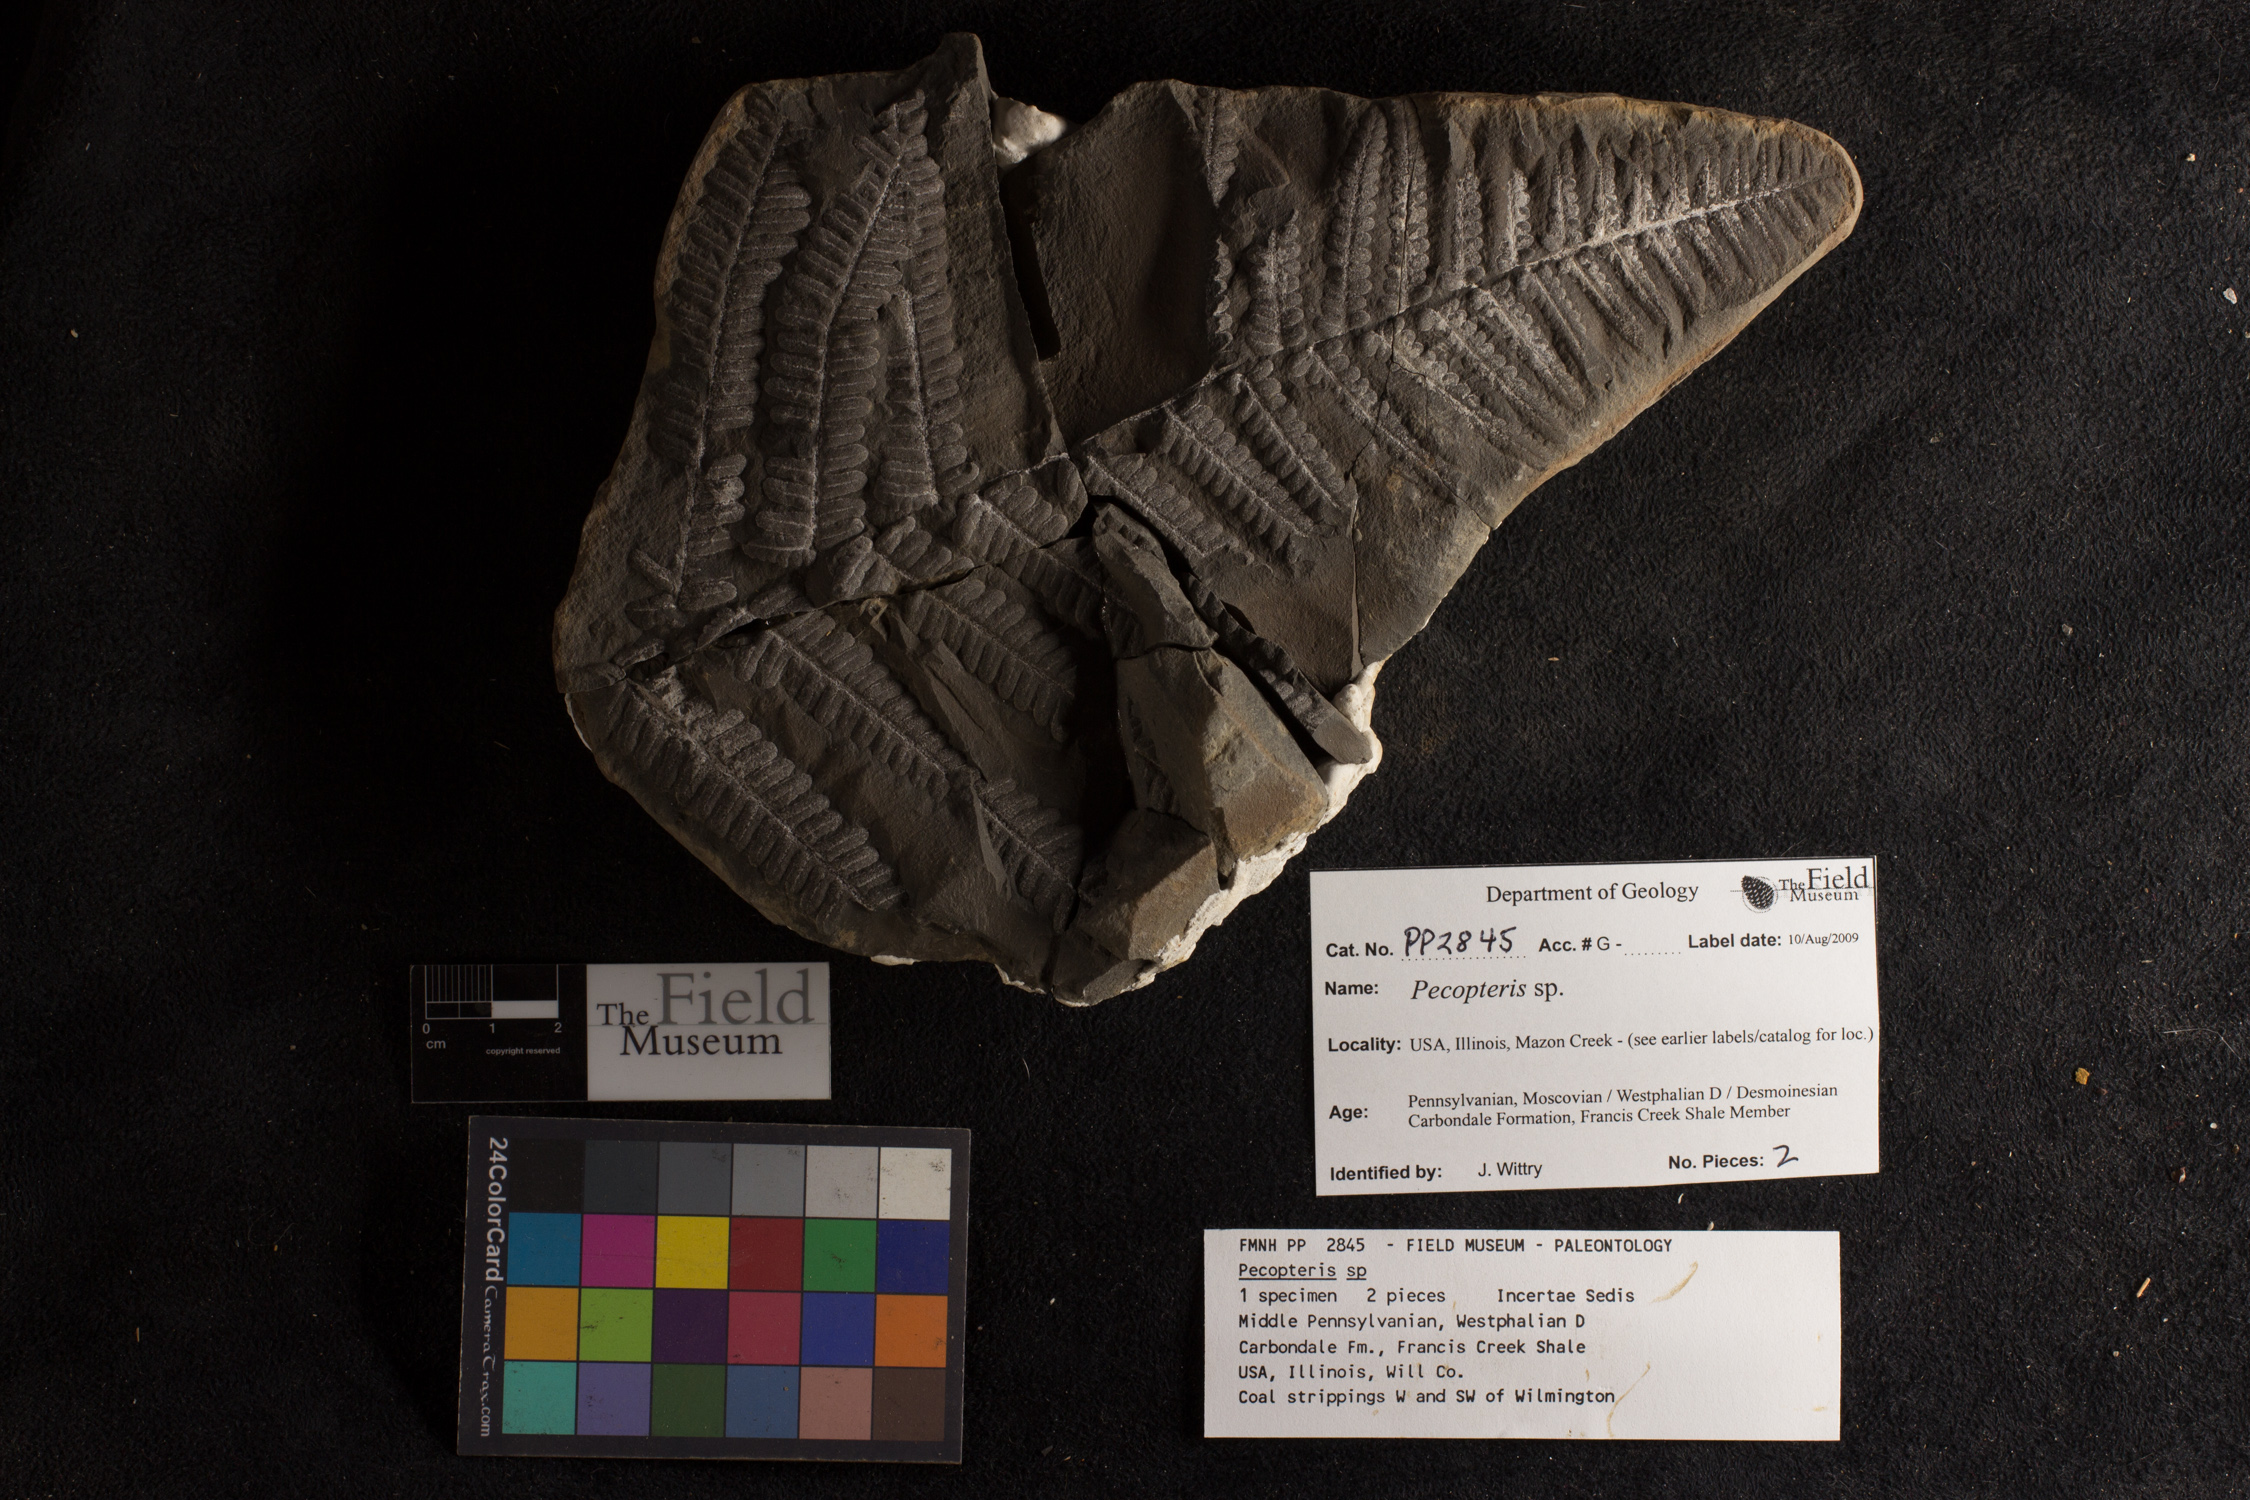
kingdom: Plantae
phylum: Tracheophyta
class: Polypodiopsida
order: Marattiales
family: Asterothecaceae
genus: Pecopteris
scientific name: Pecopteris
